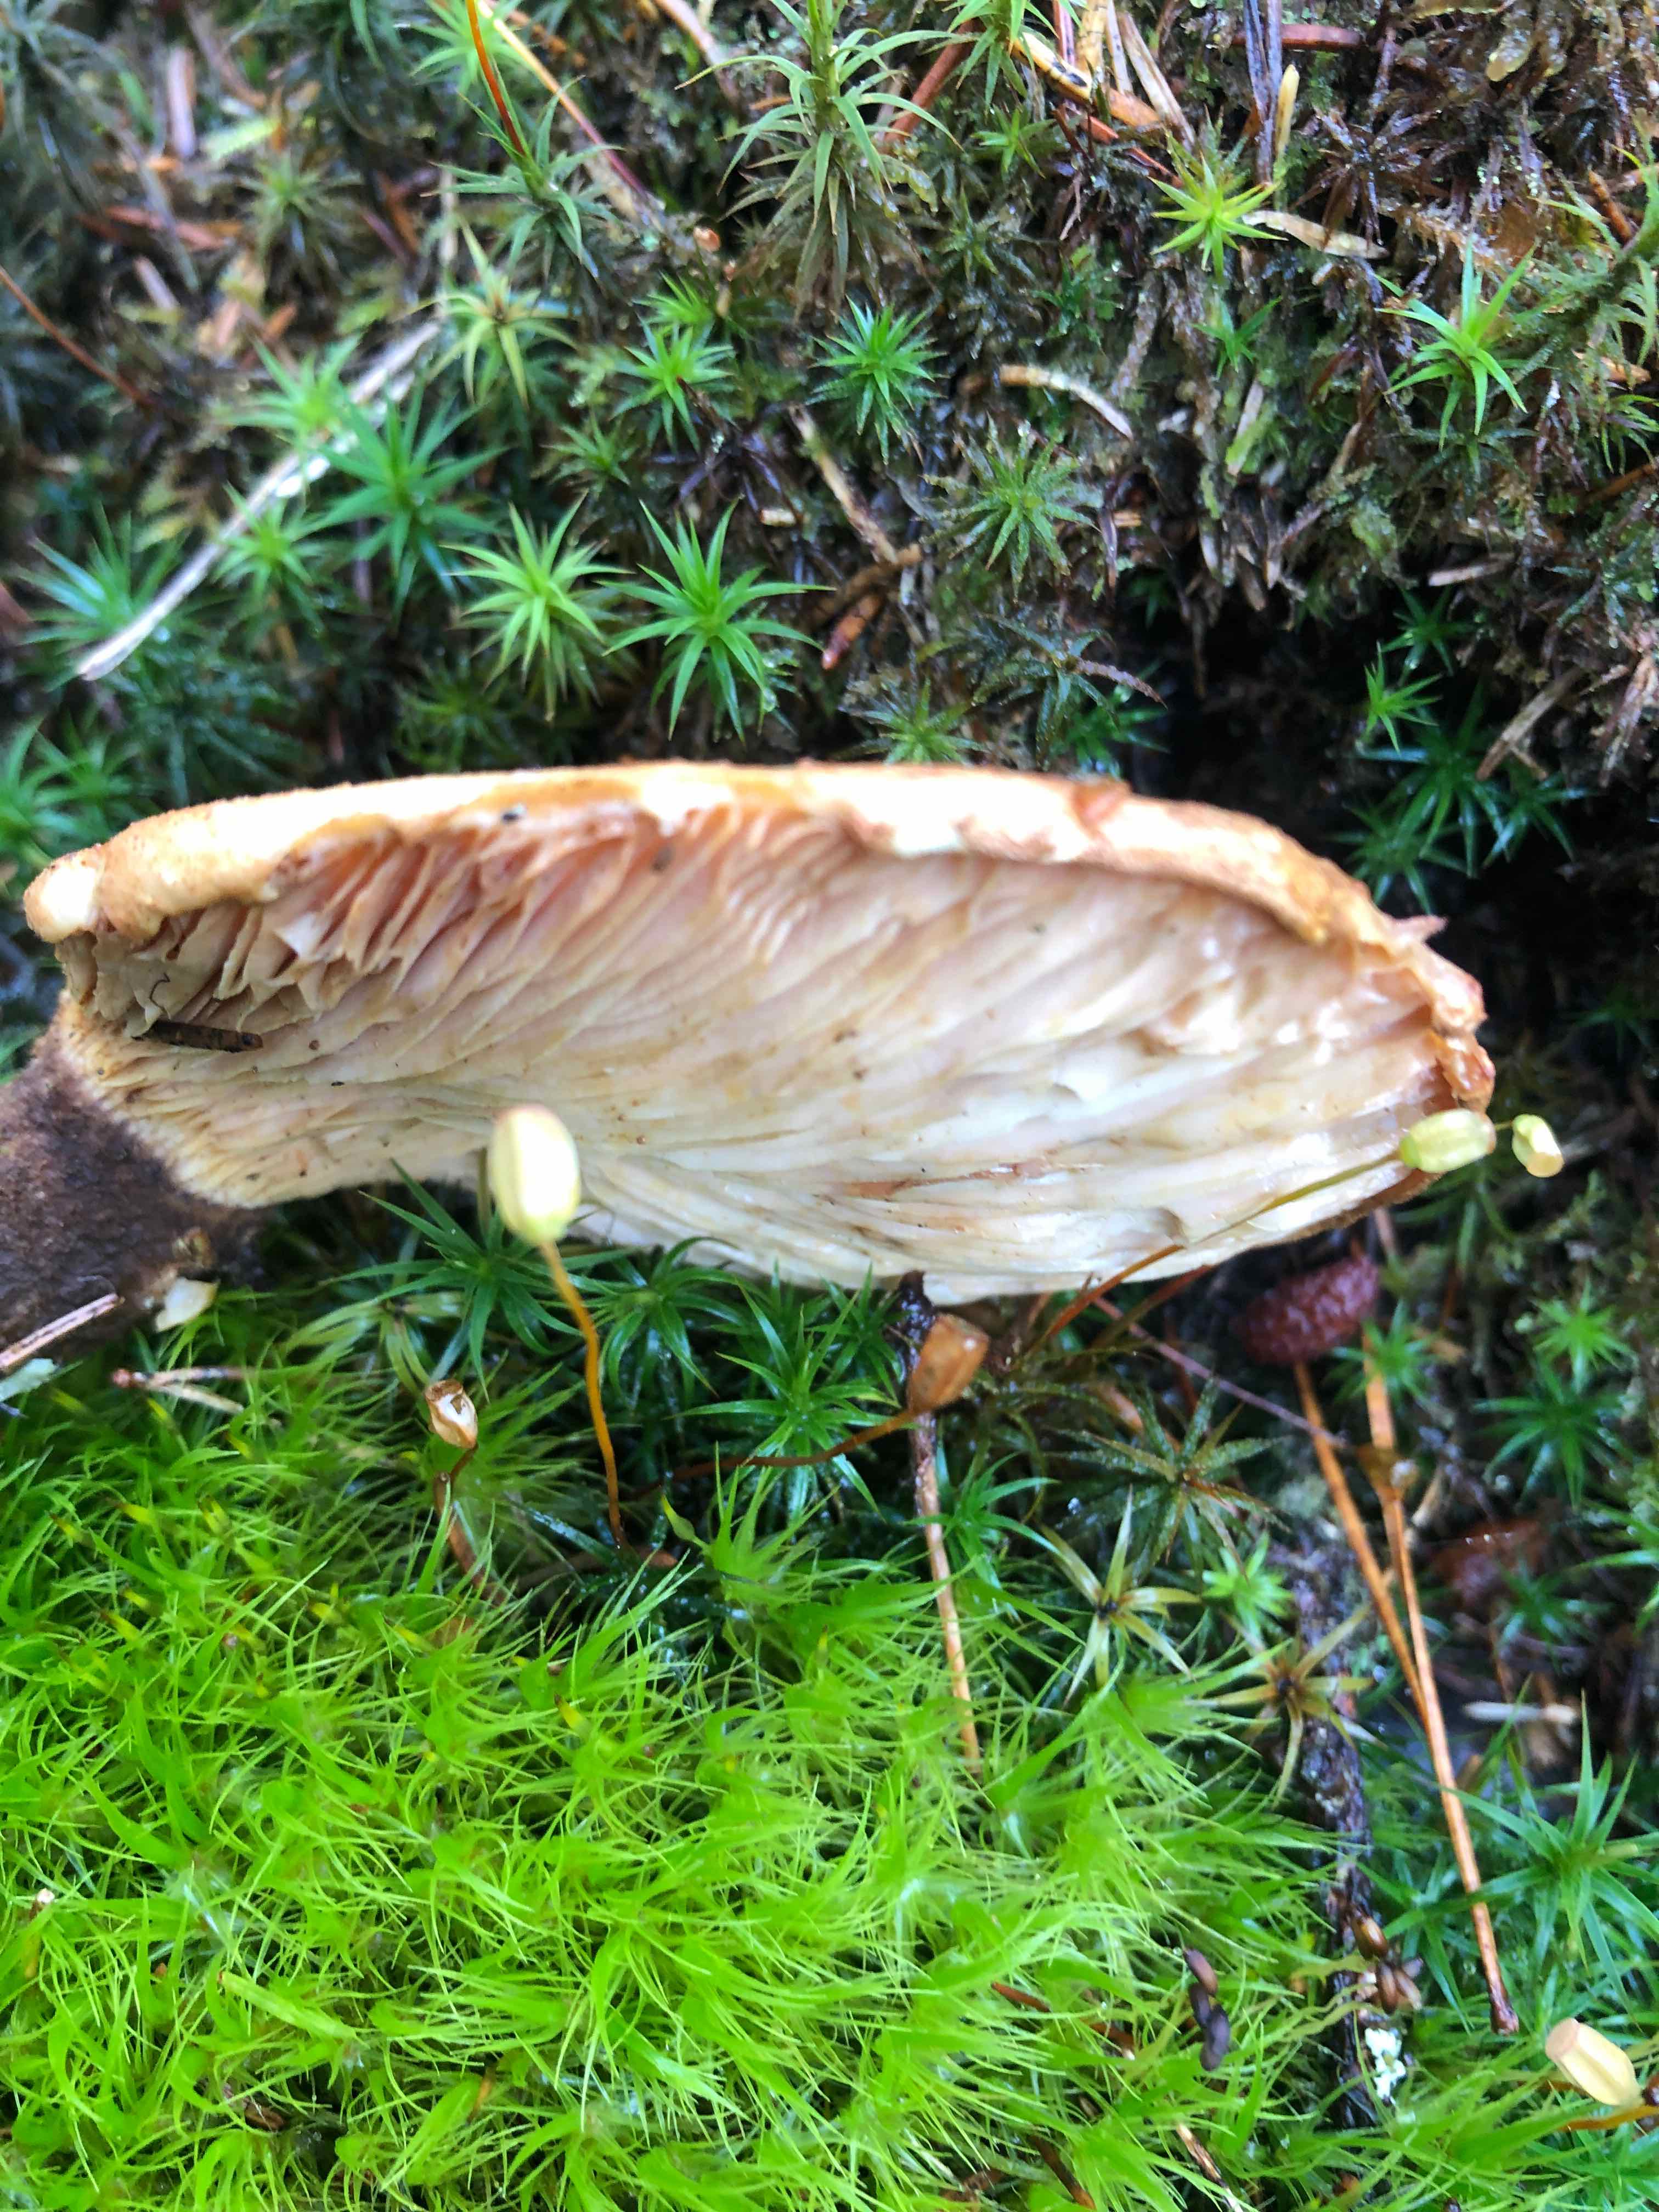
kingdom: Fungi
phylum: Basidiomycota
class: Agaricomycetes
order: Boletales
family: Tapinellaceae
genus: Tapinella
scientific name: Tapinella atrotomentosa
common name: sortfiltet viftesvamp
